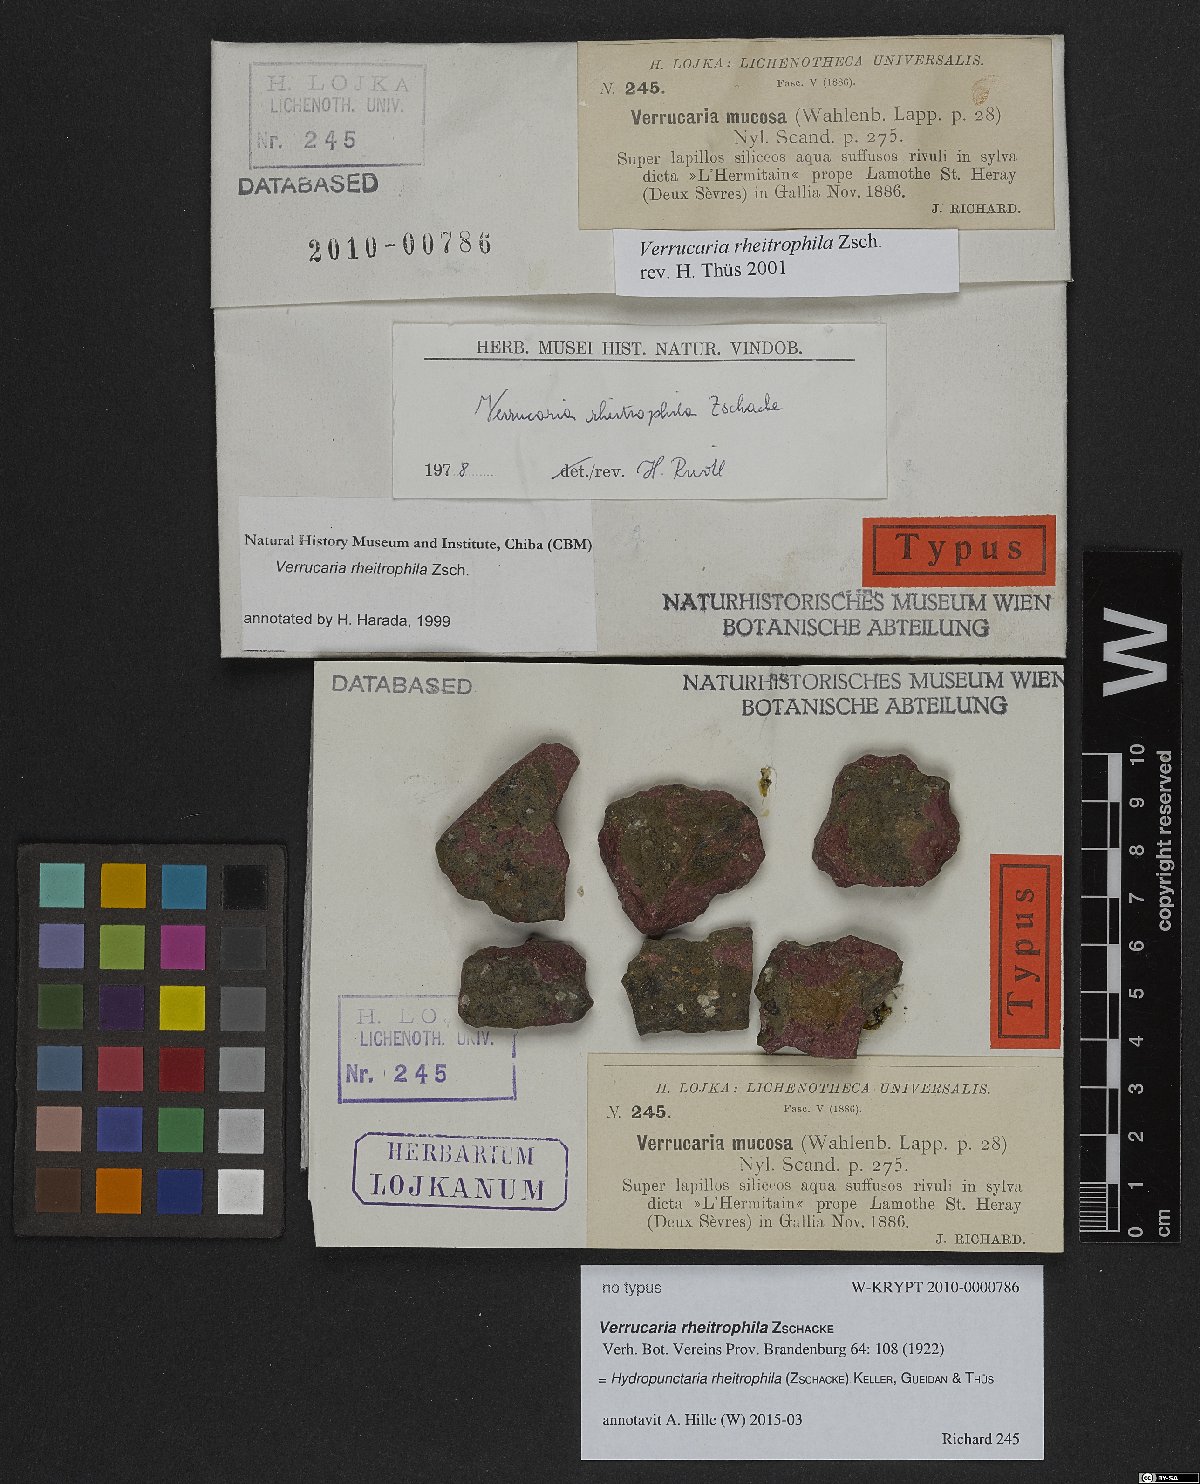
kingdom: Fungi
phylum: Ascomycota
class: Eurotiomycetes
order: Verrucariales
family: Verrucariaceae
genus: Hydropunctaria
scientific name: Hydropunctaria rheitrophila
